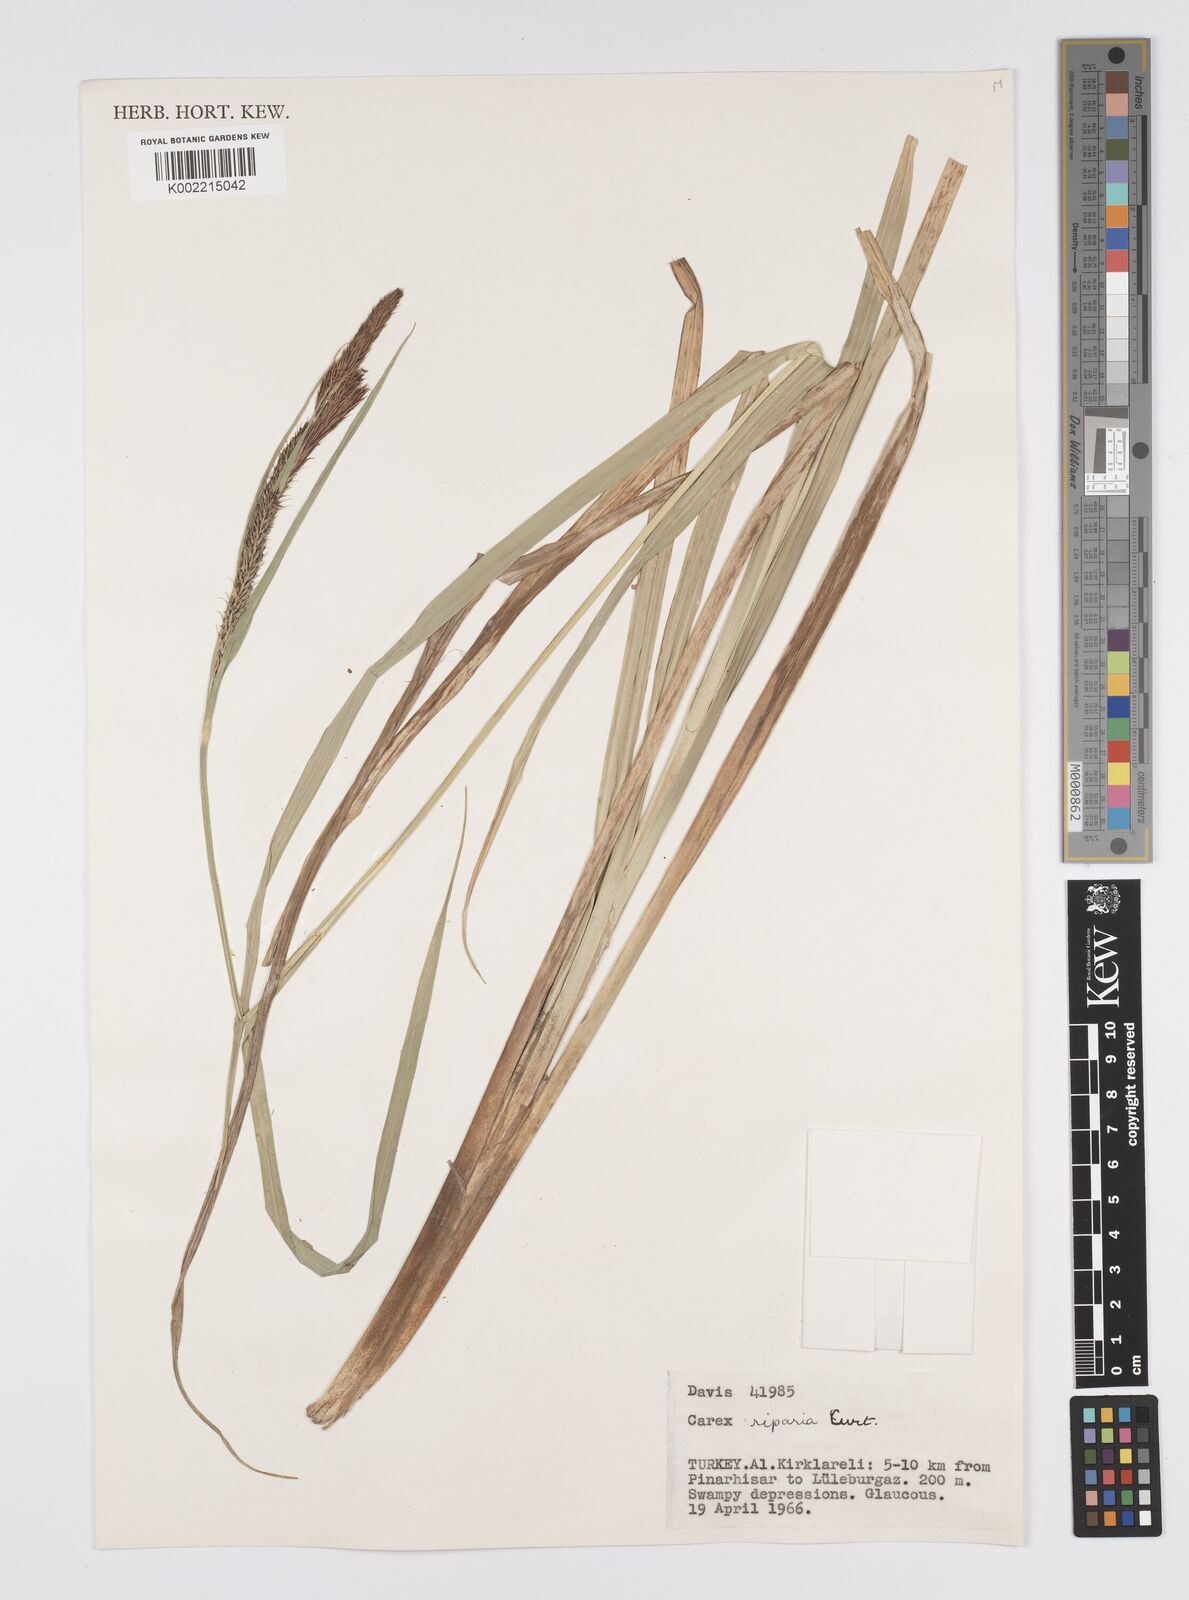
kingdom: Plantae
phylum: Tracheophyta
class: Liliopsida
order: Poales
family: Cyperaceae
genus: Carex
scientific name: Carex riparia
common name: Greater pond-sedge
